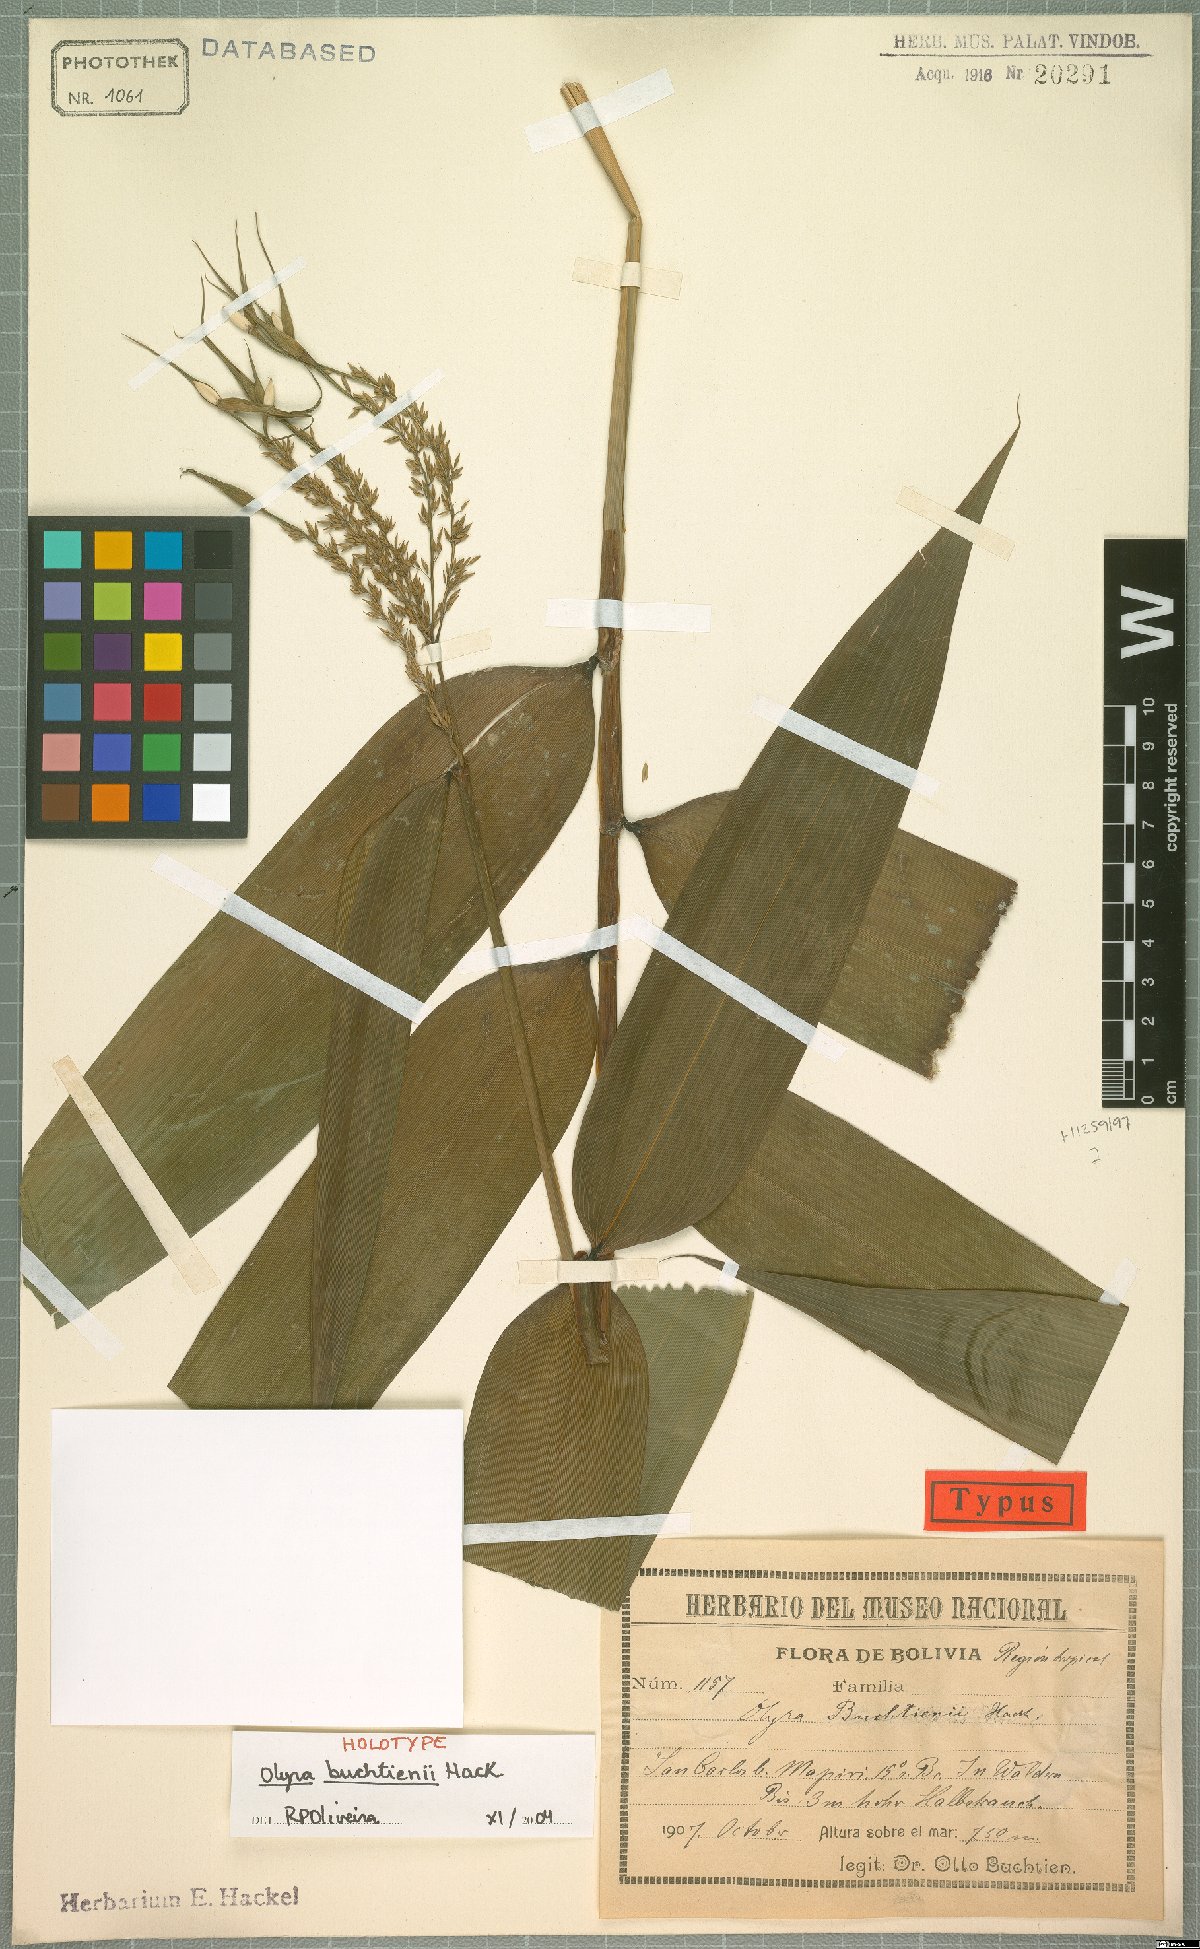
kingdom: Plantae
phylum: Tracheophyta
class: Liliopsida
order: Poales
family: Poaceae
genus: Olyra
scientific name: Olyra buchtienii
